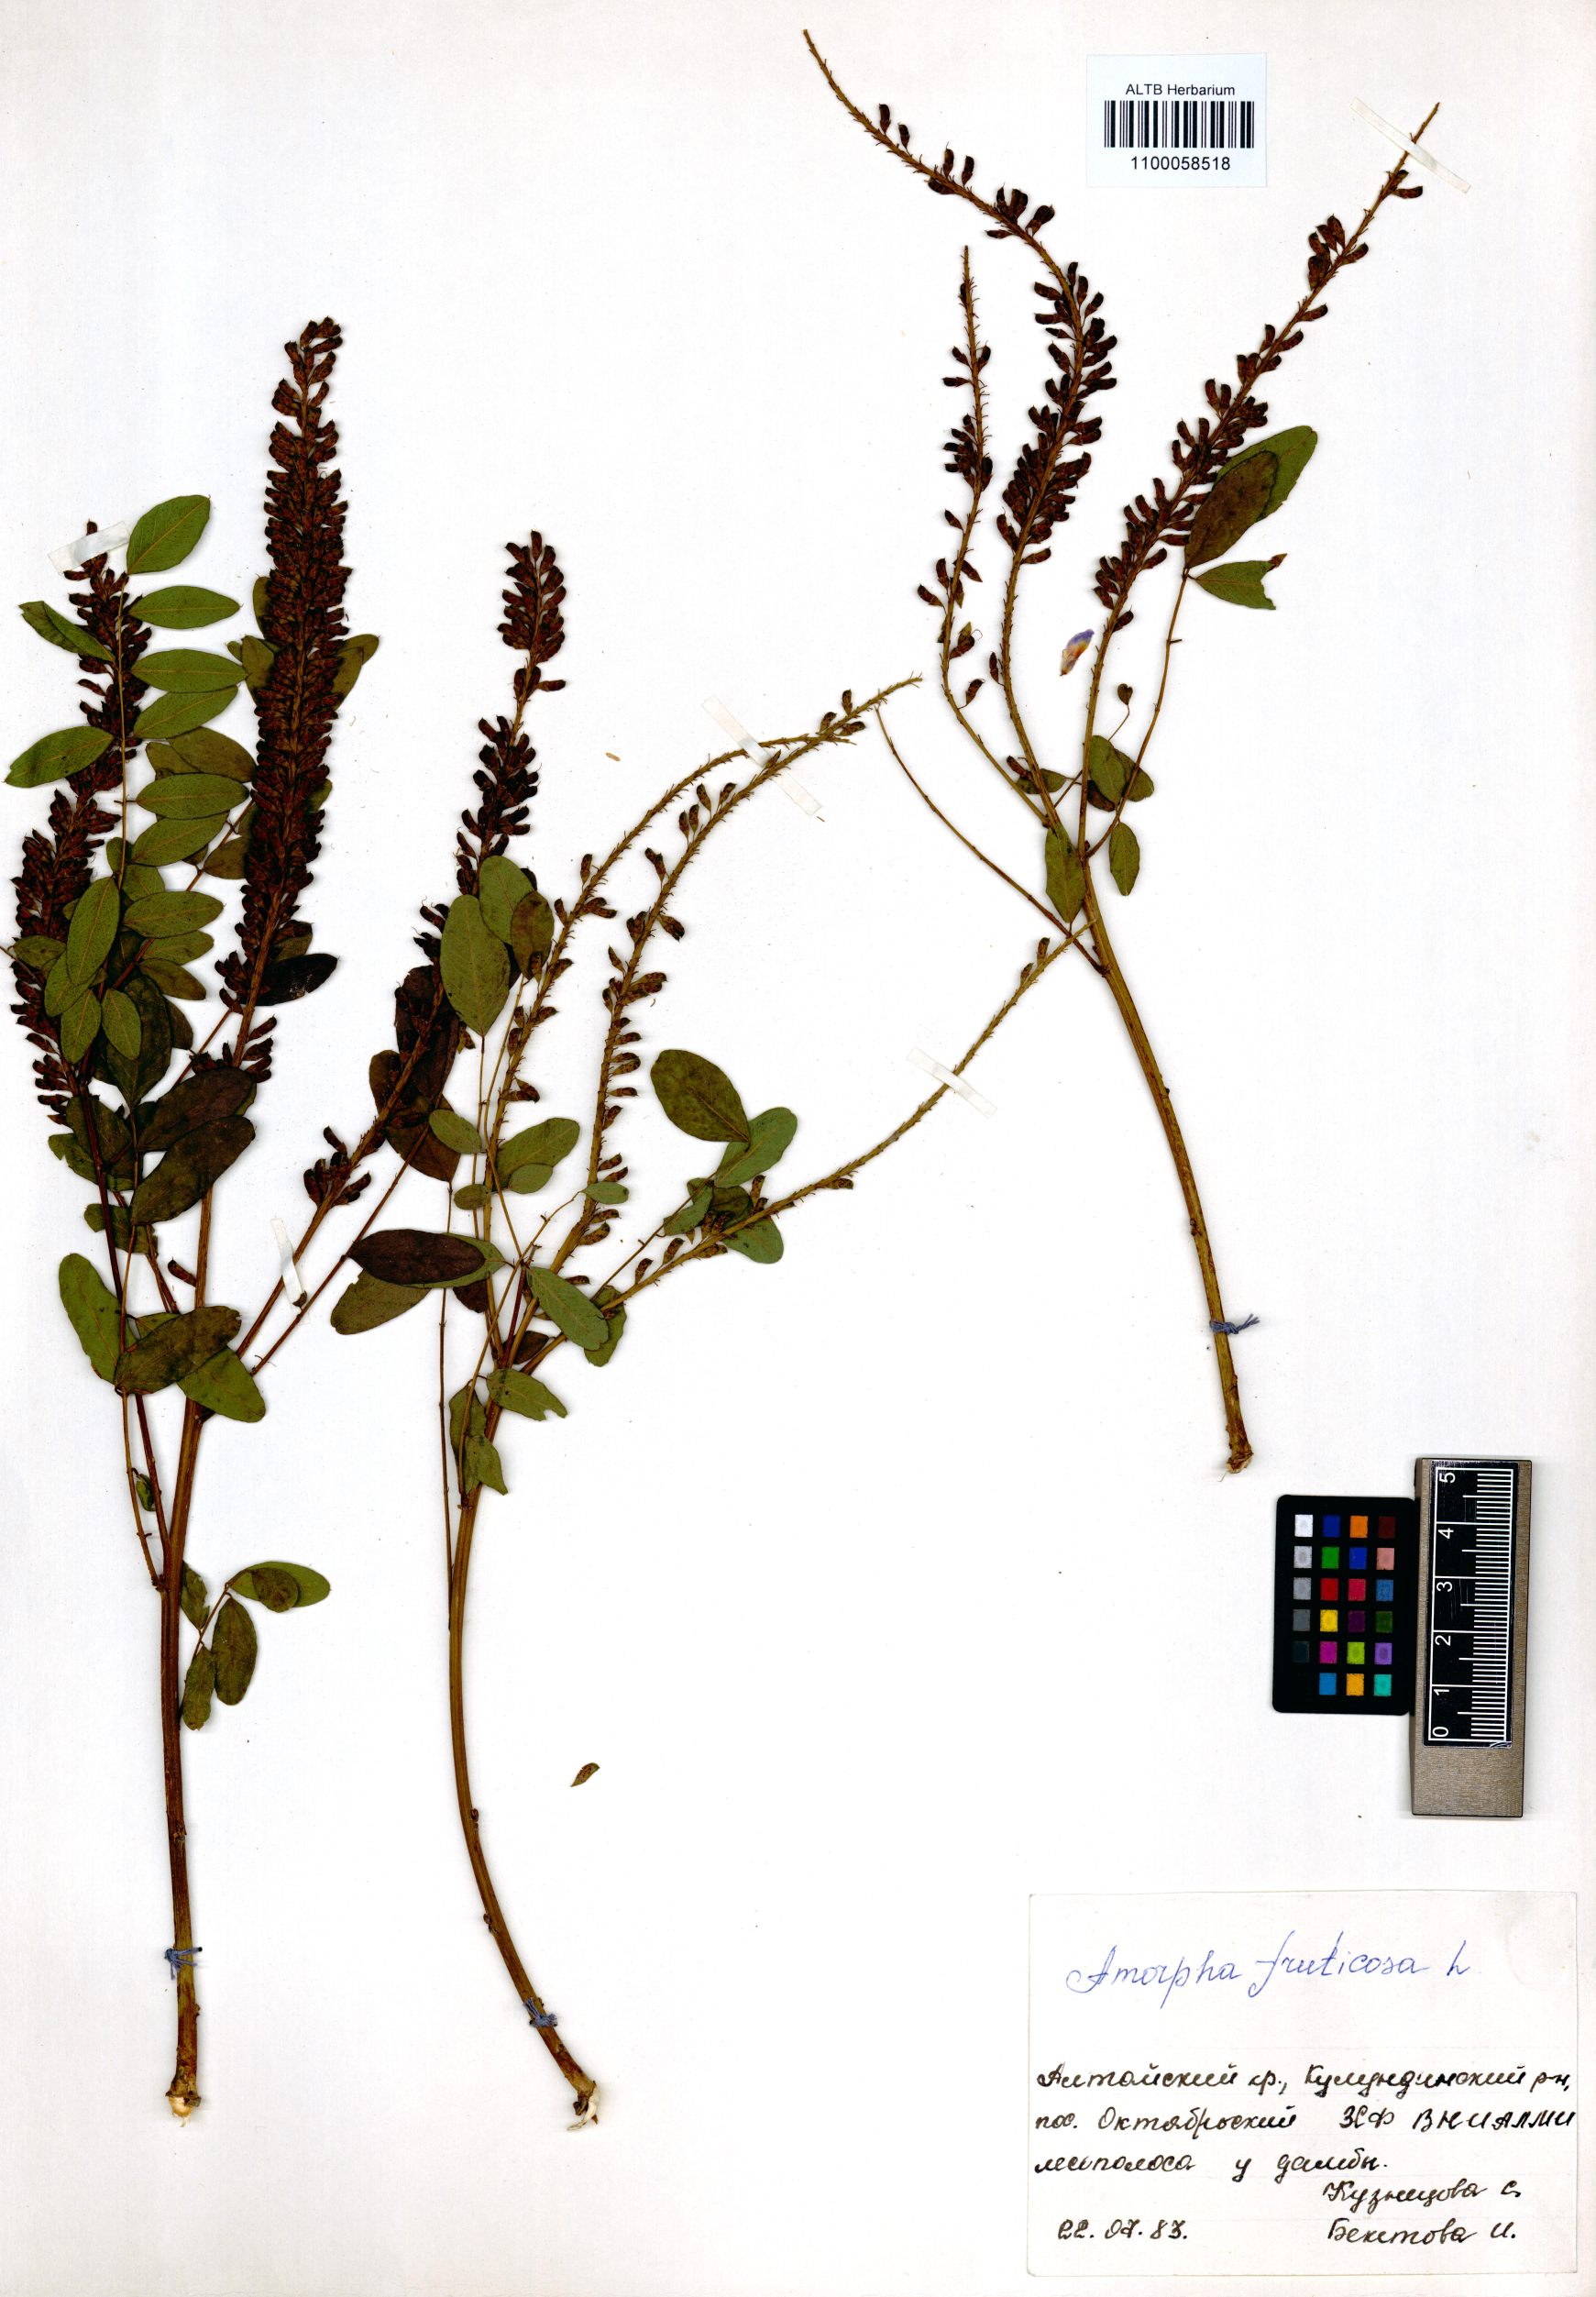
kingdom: Plantae
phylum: Tracheophyta
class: Magnoliopsida
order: Fabales
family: Fabaceae
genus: Amorpha
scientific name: Amorpha fruticosa
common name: False indigo
